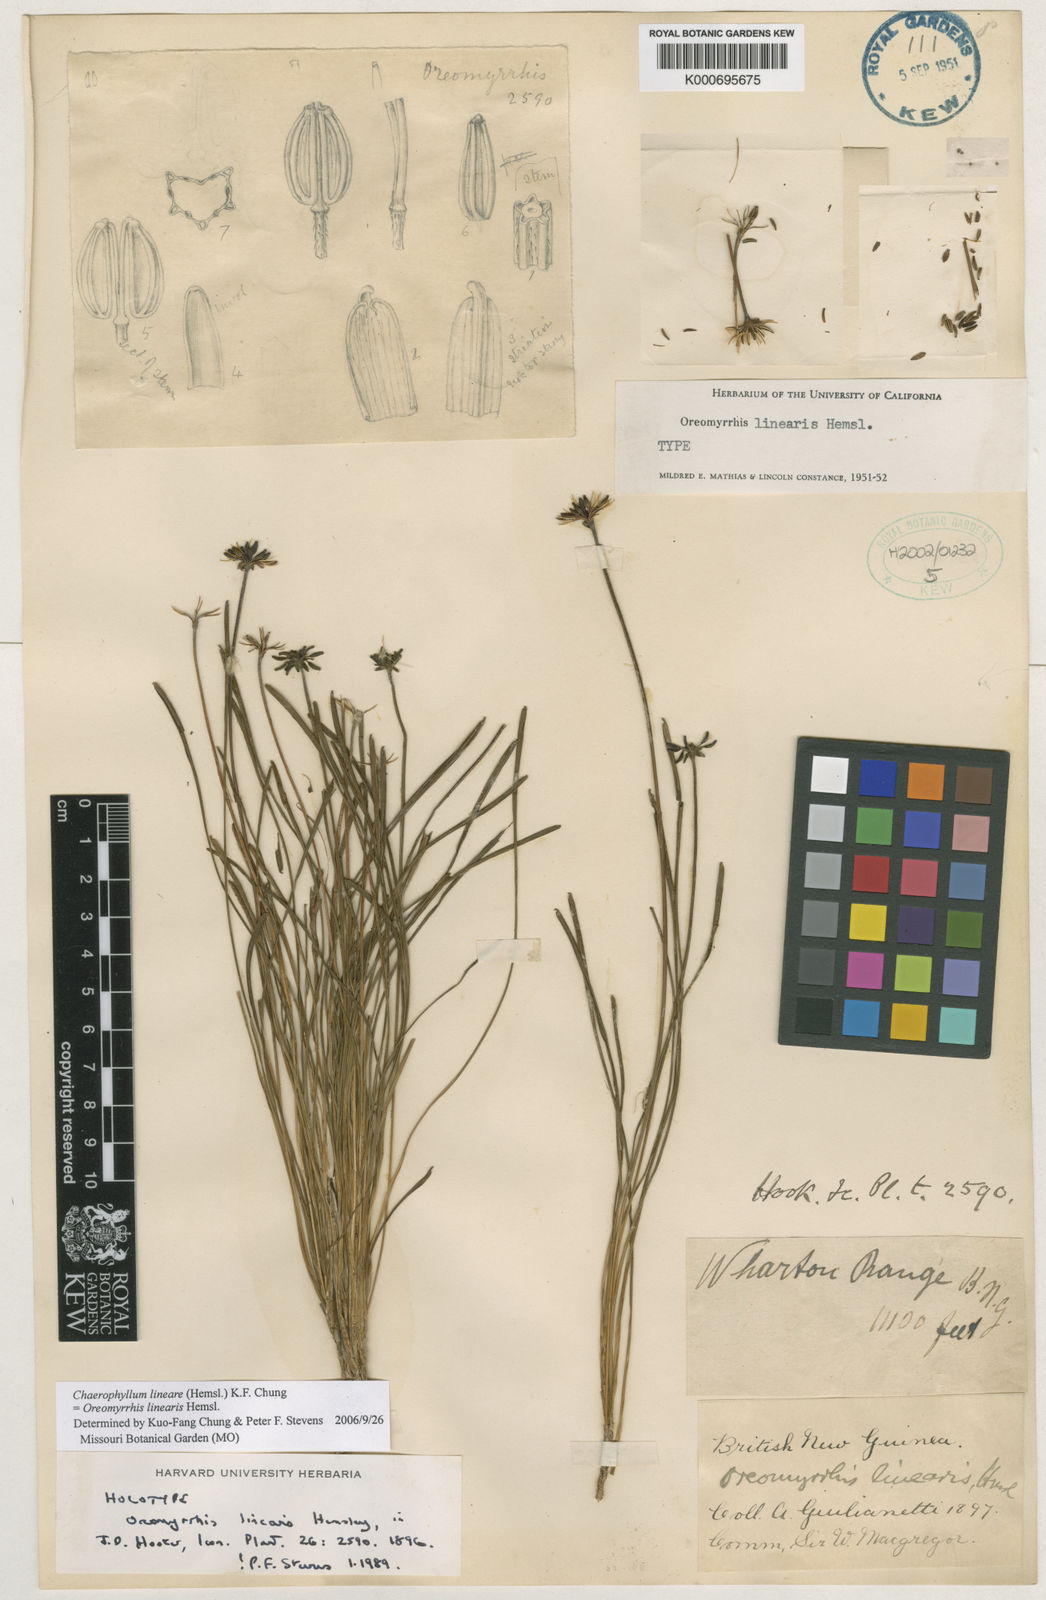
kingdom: Plantae
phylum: Tracheophyta
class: Magnoliopsida
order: Apiales
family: Apiaceae
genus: Chaerophyllum
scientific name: Chaerophyllum lineare
